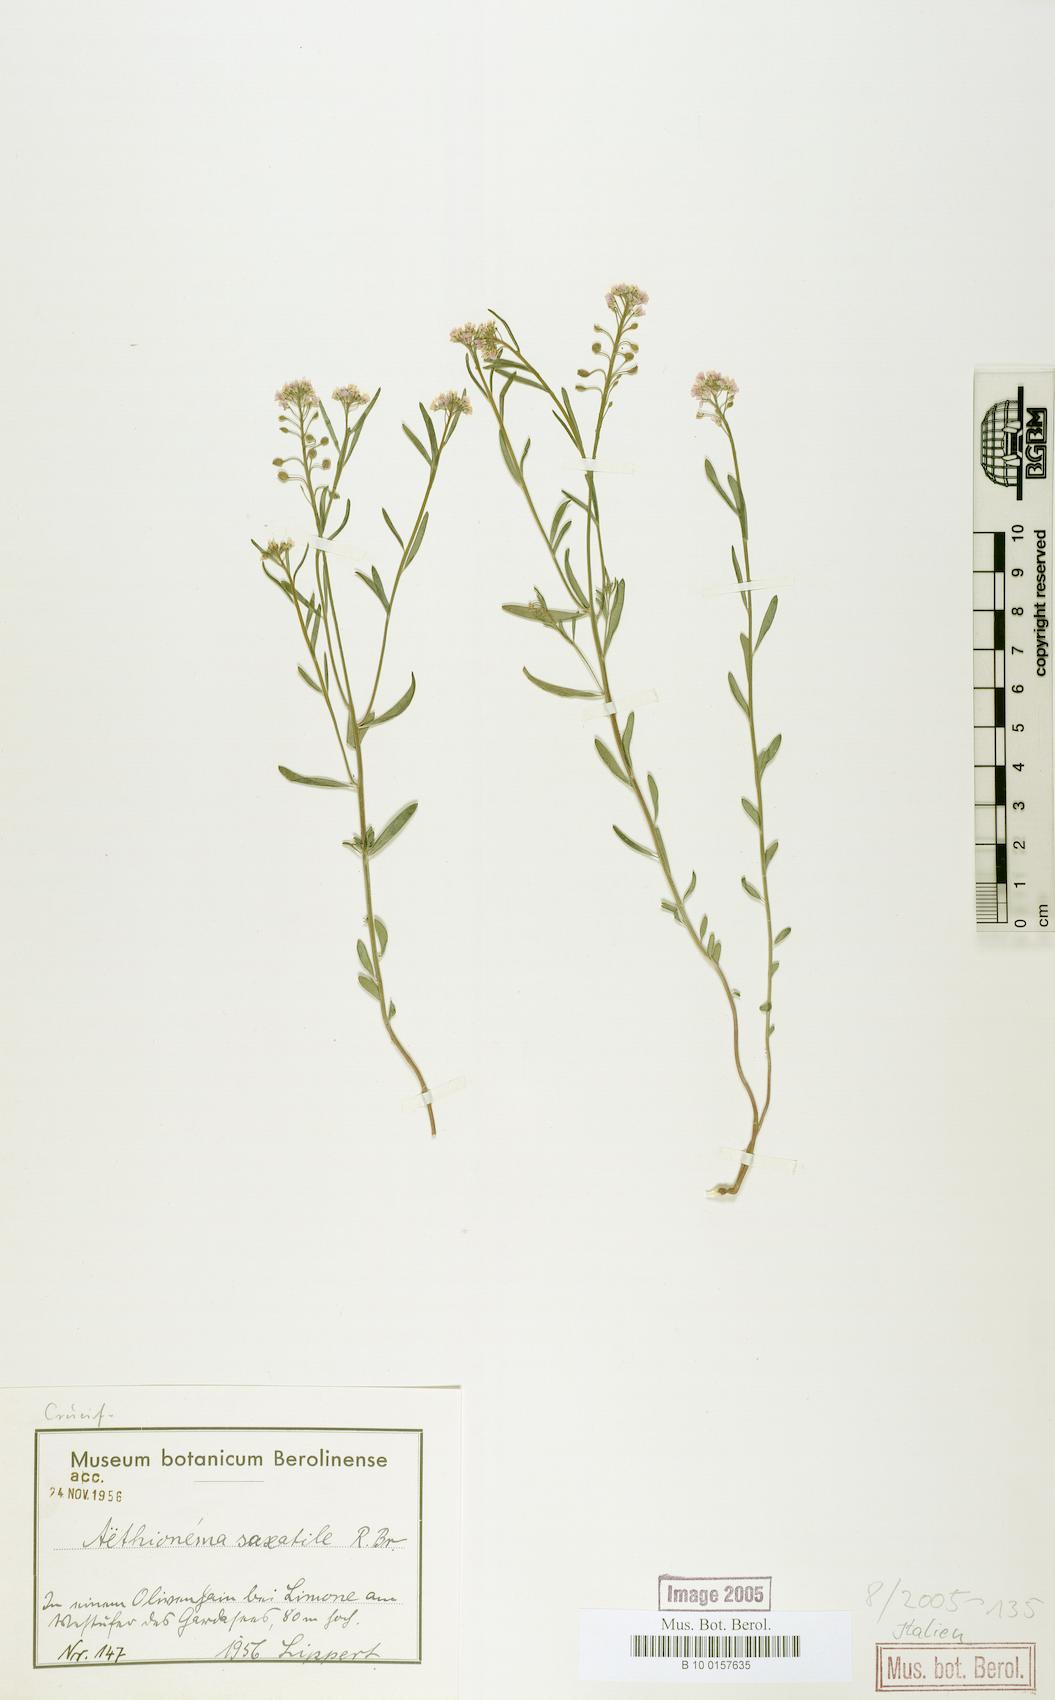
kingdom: Plantae
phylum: Tracheophyta
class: Magnoliopsida
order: Brassicales
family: Brassicaceae
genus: Aethionema
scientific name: Aethionema saxatile
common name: Burnt candytuft
